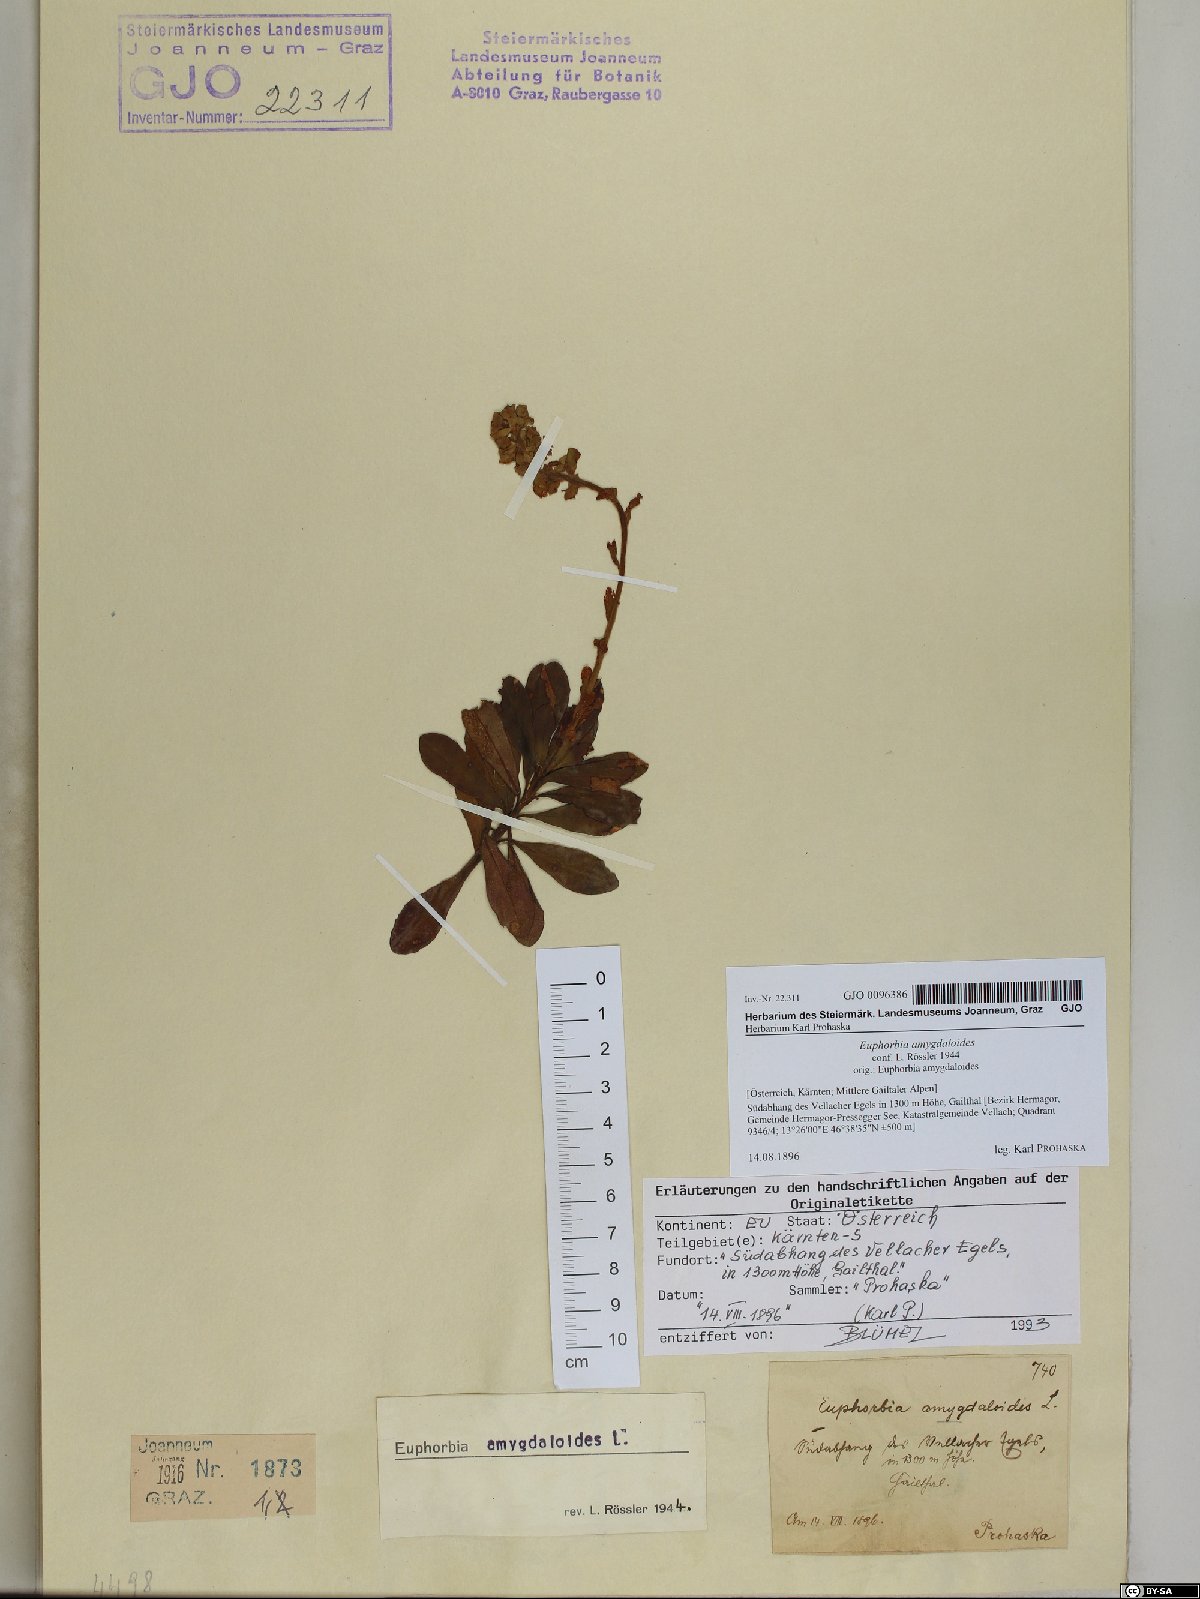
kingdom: Plantae
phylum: Tracheophyta
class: Magnoliopsida
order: Malpighiales
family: Euphorbiaceae
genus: Euphorbia
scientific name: Euphorbia amygdaloides
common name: Wood spurge
